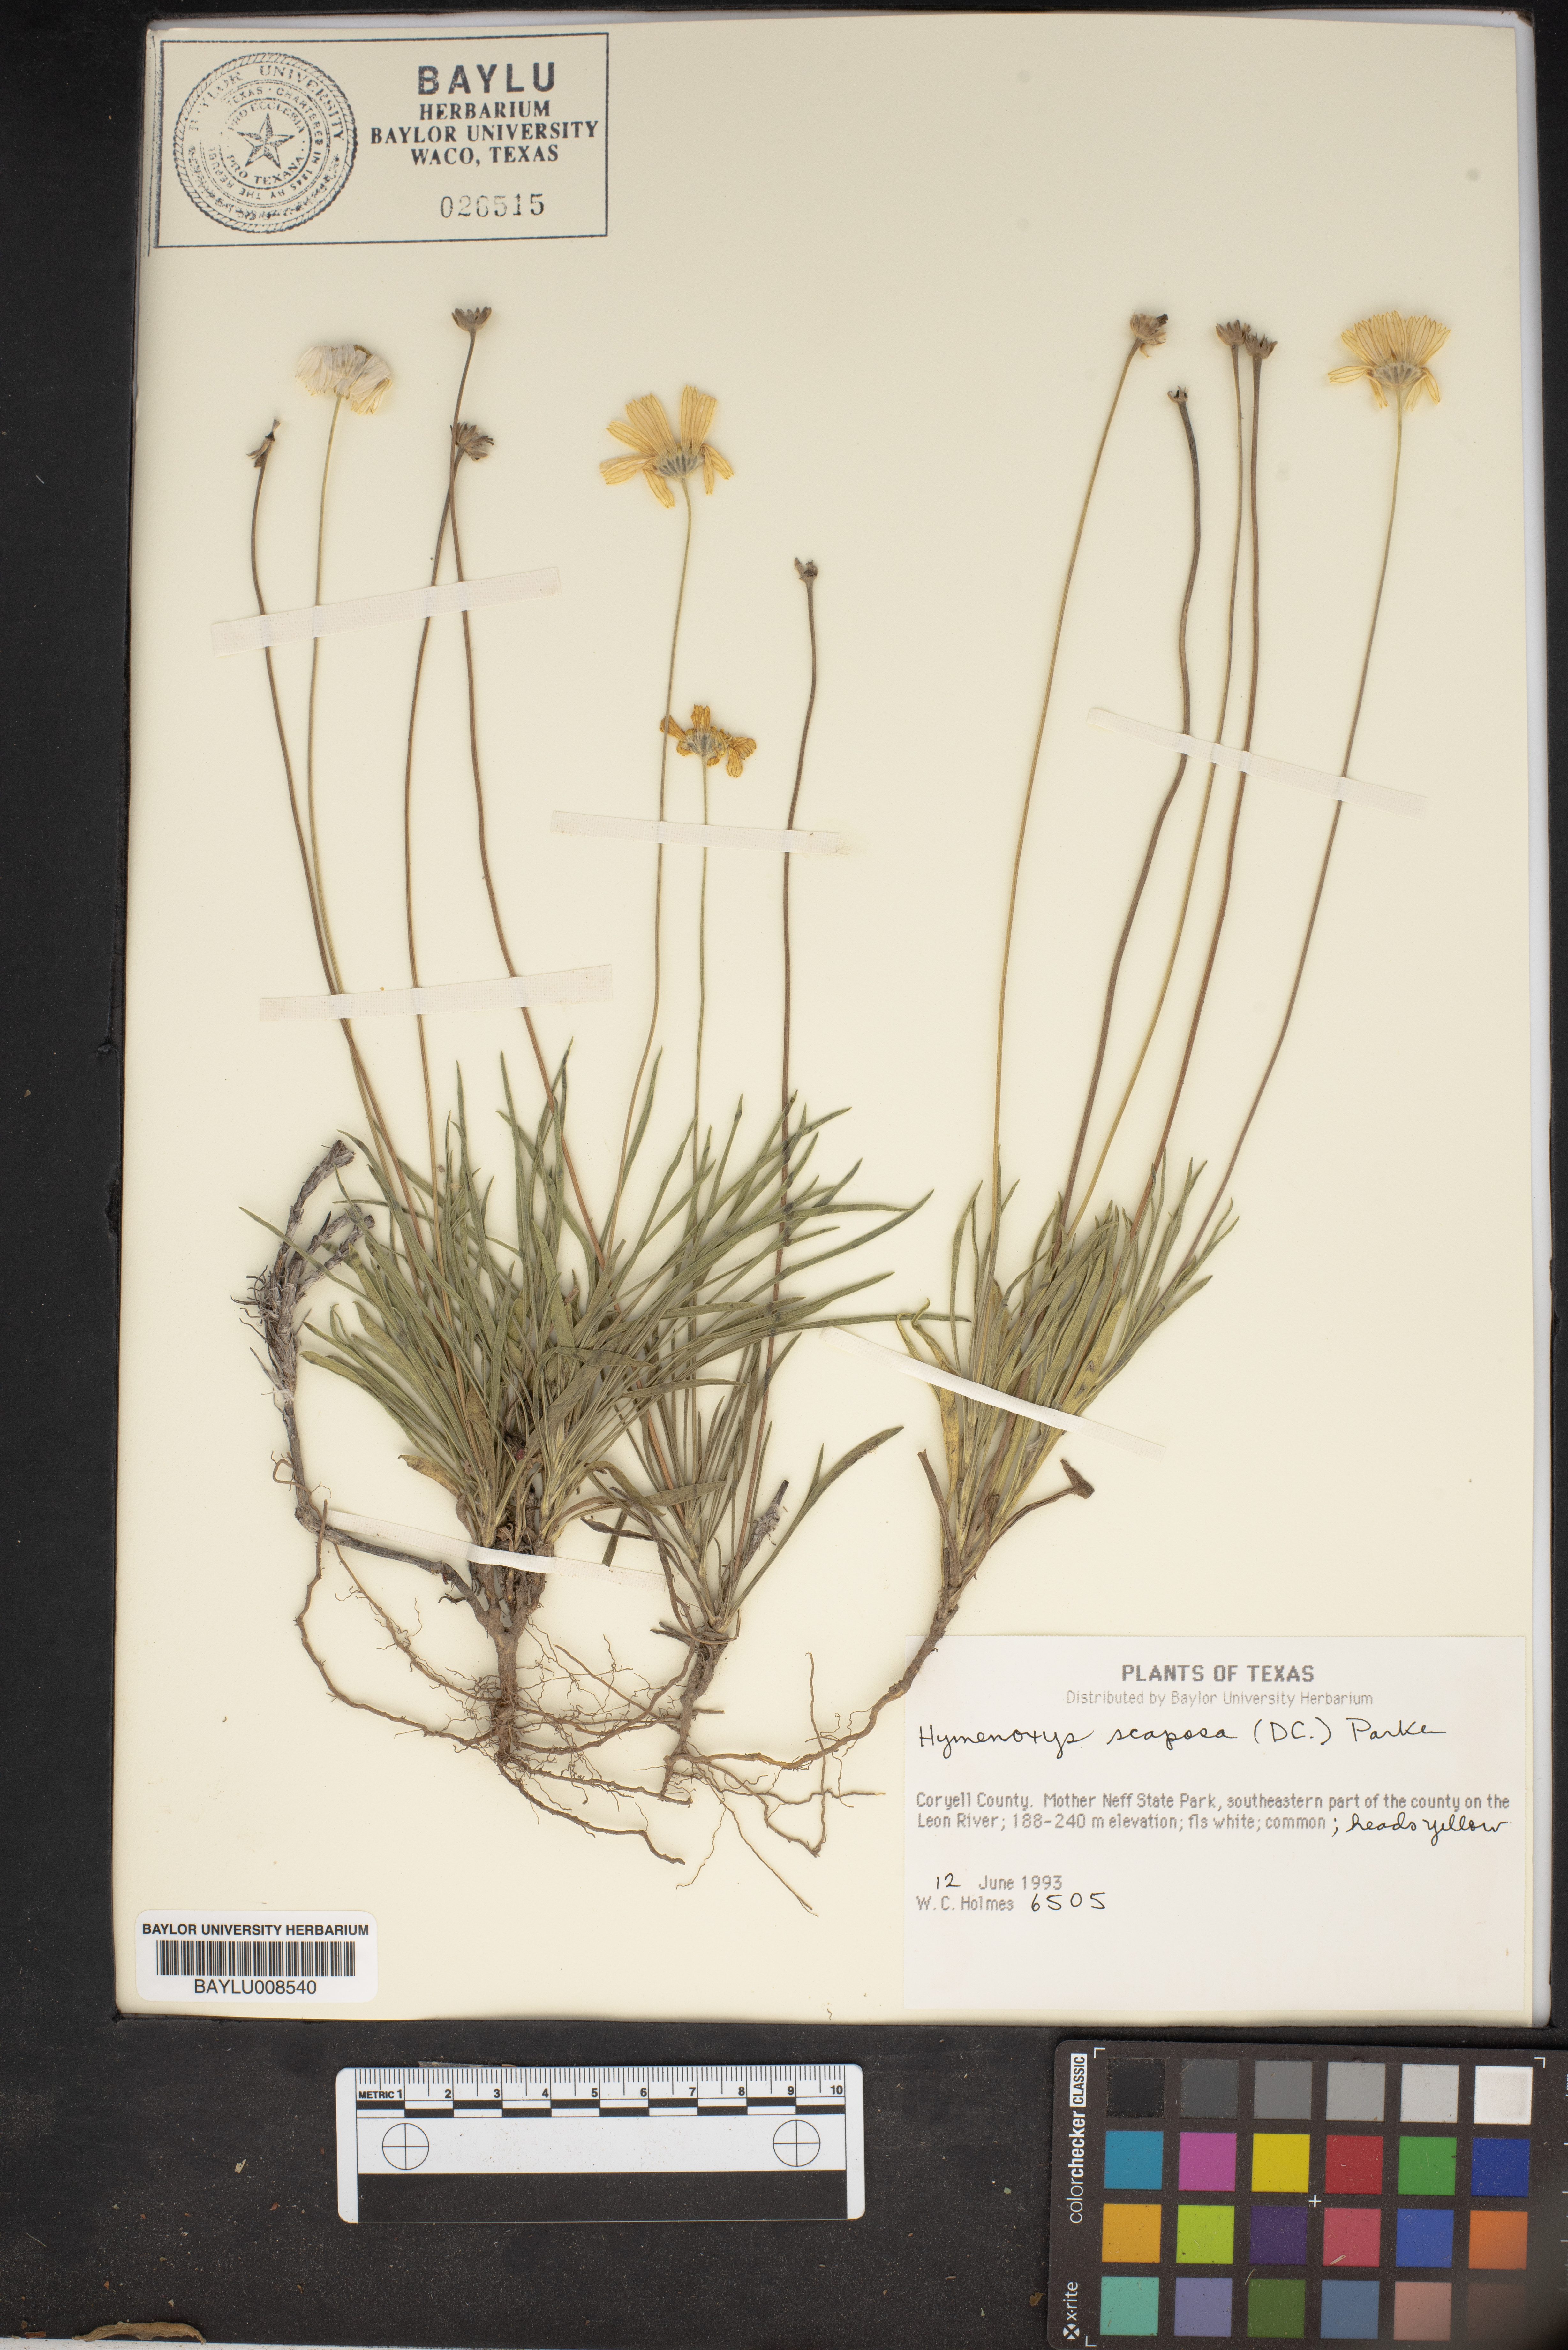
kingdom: Plantae
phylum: Tracheophyta
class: Magnoliopsida
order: Asterales
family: Asteraceae
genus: Tetraneuris
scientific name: Tetraneuris scaposa
